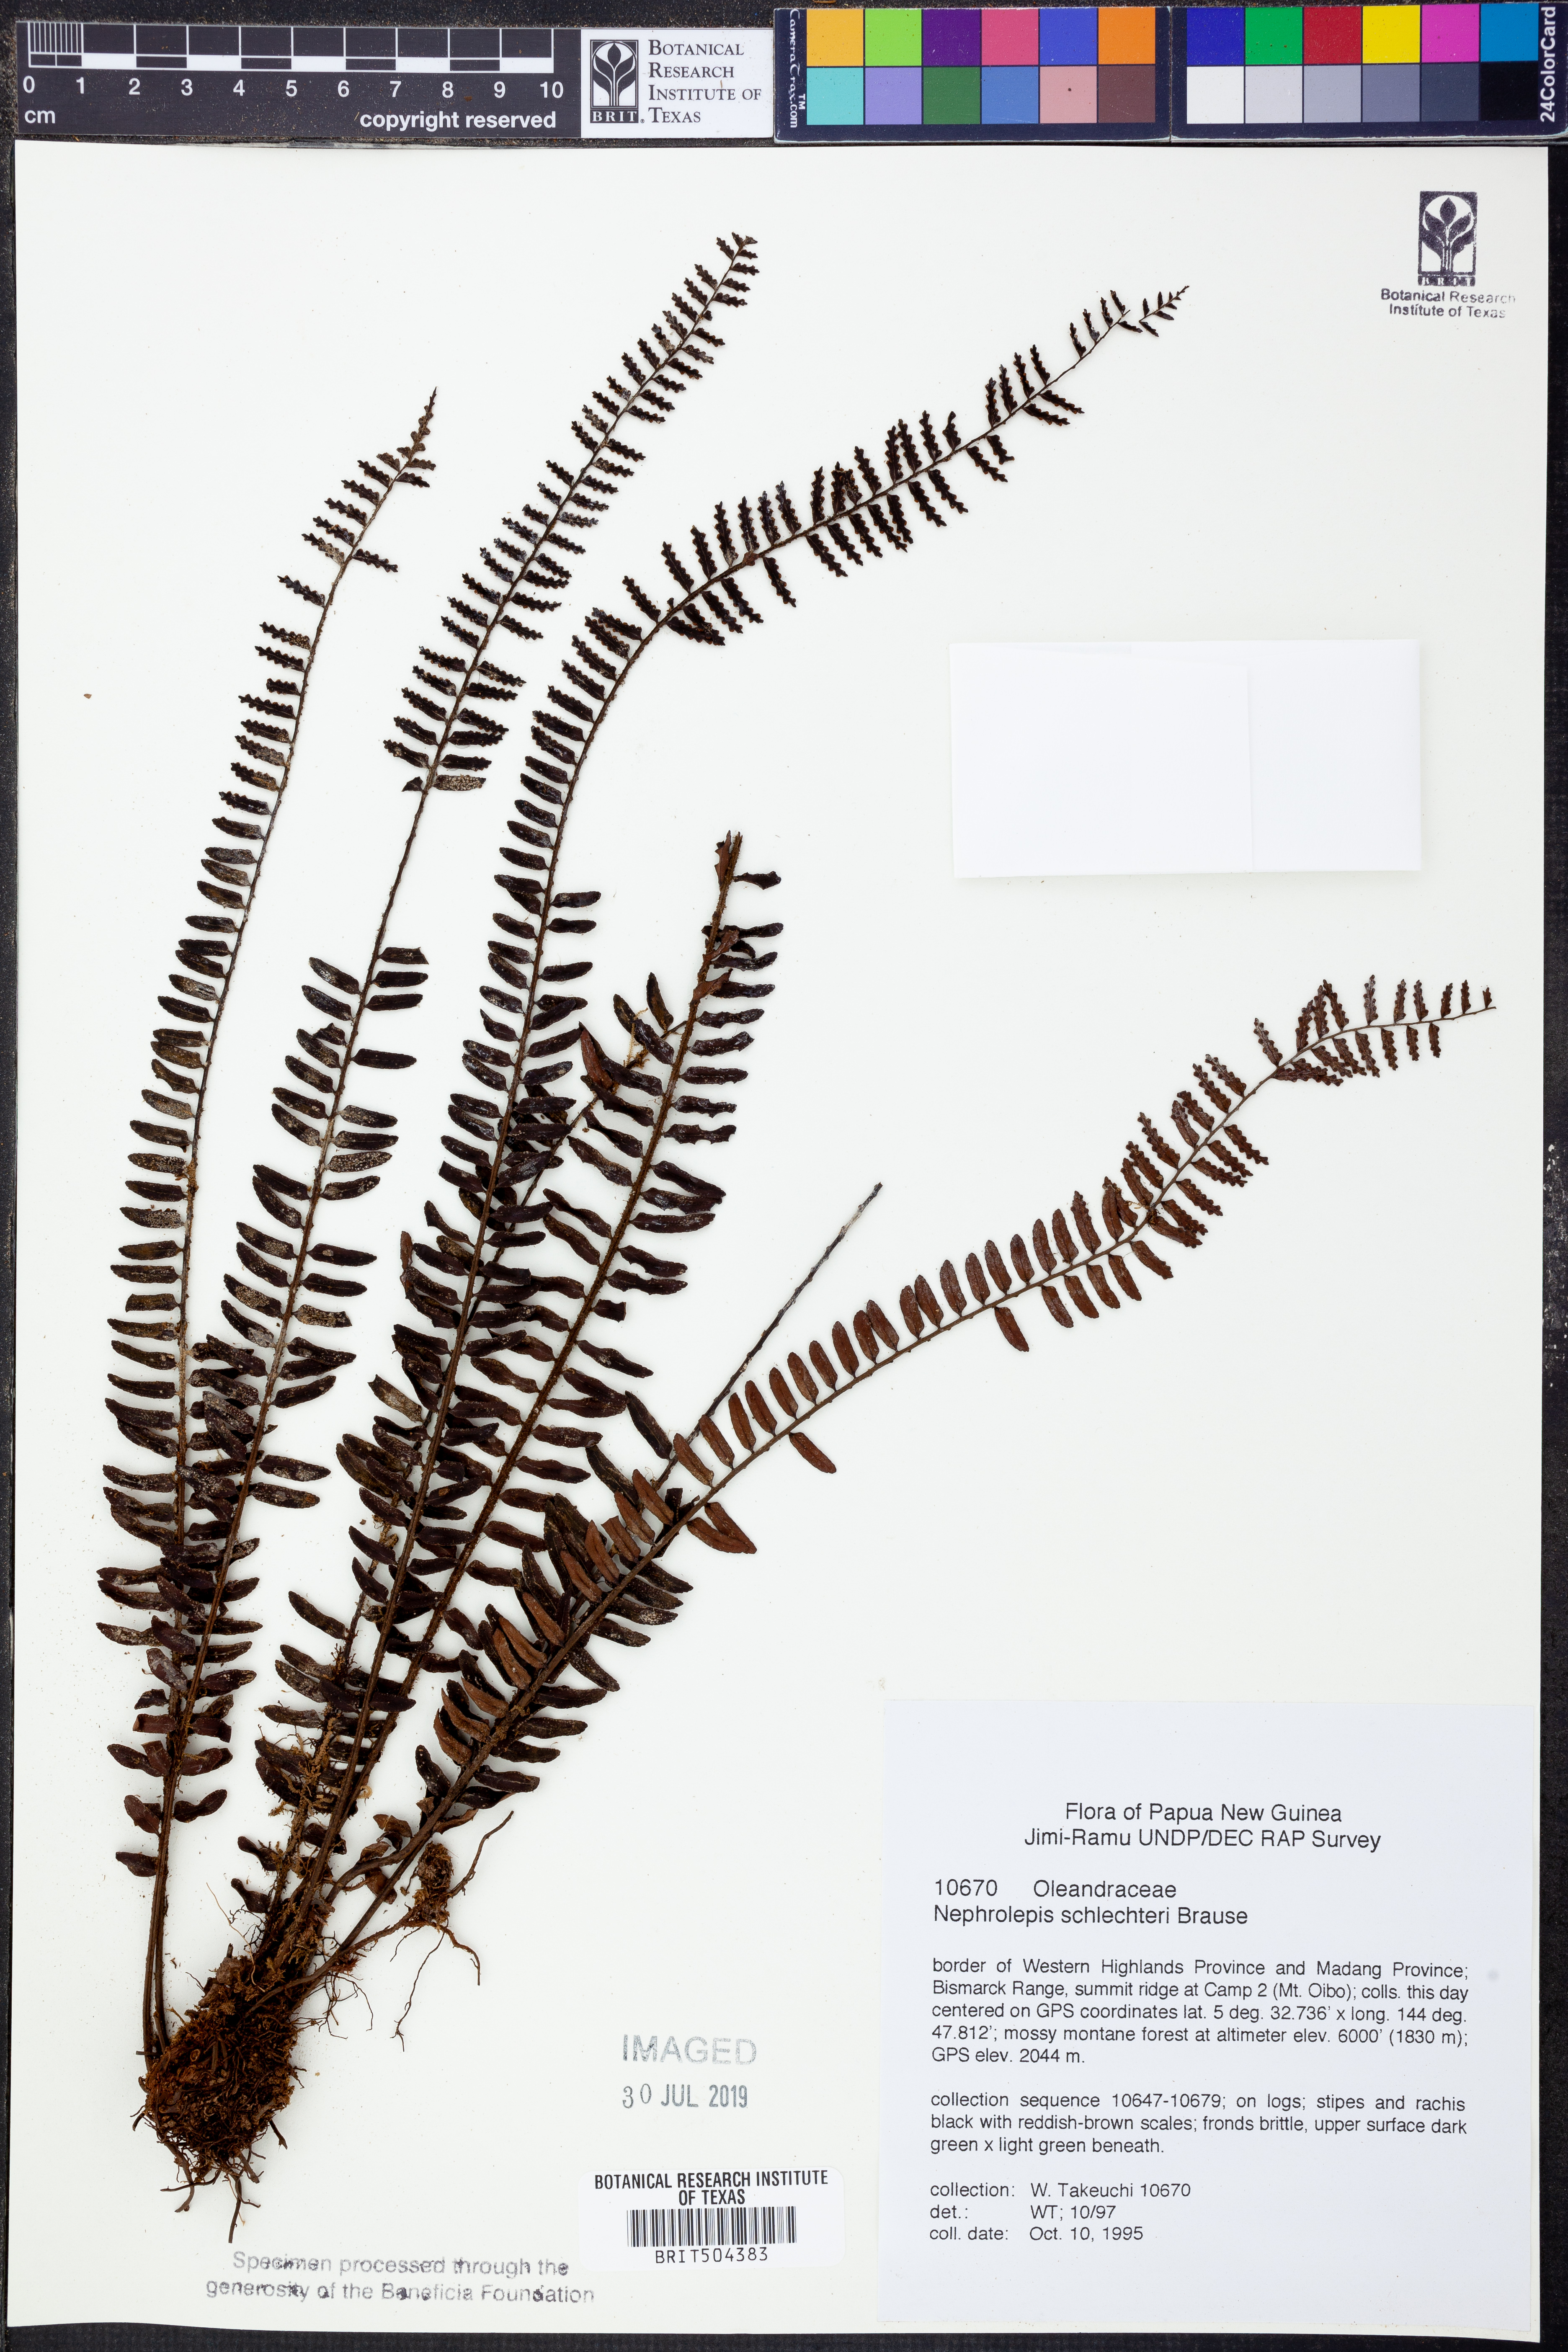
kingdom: Plantae
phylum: Tracheophyta
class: Polypodiopsida
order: Polypodiales
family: Nephrolepidaceae
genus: Nephrolepis
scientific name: Nephrolepis davalliae
